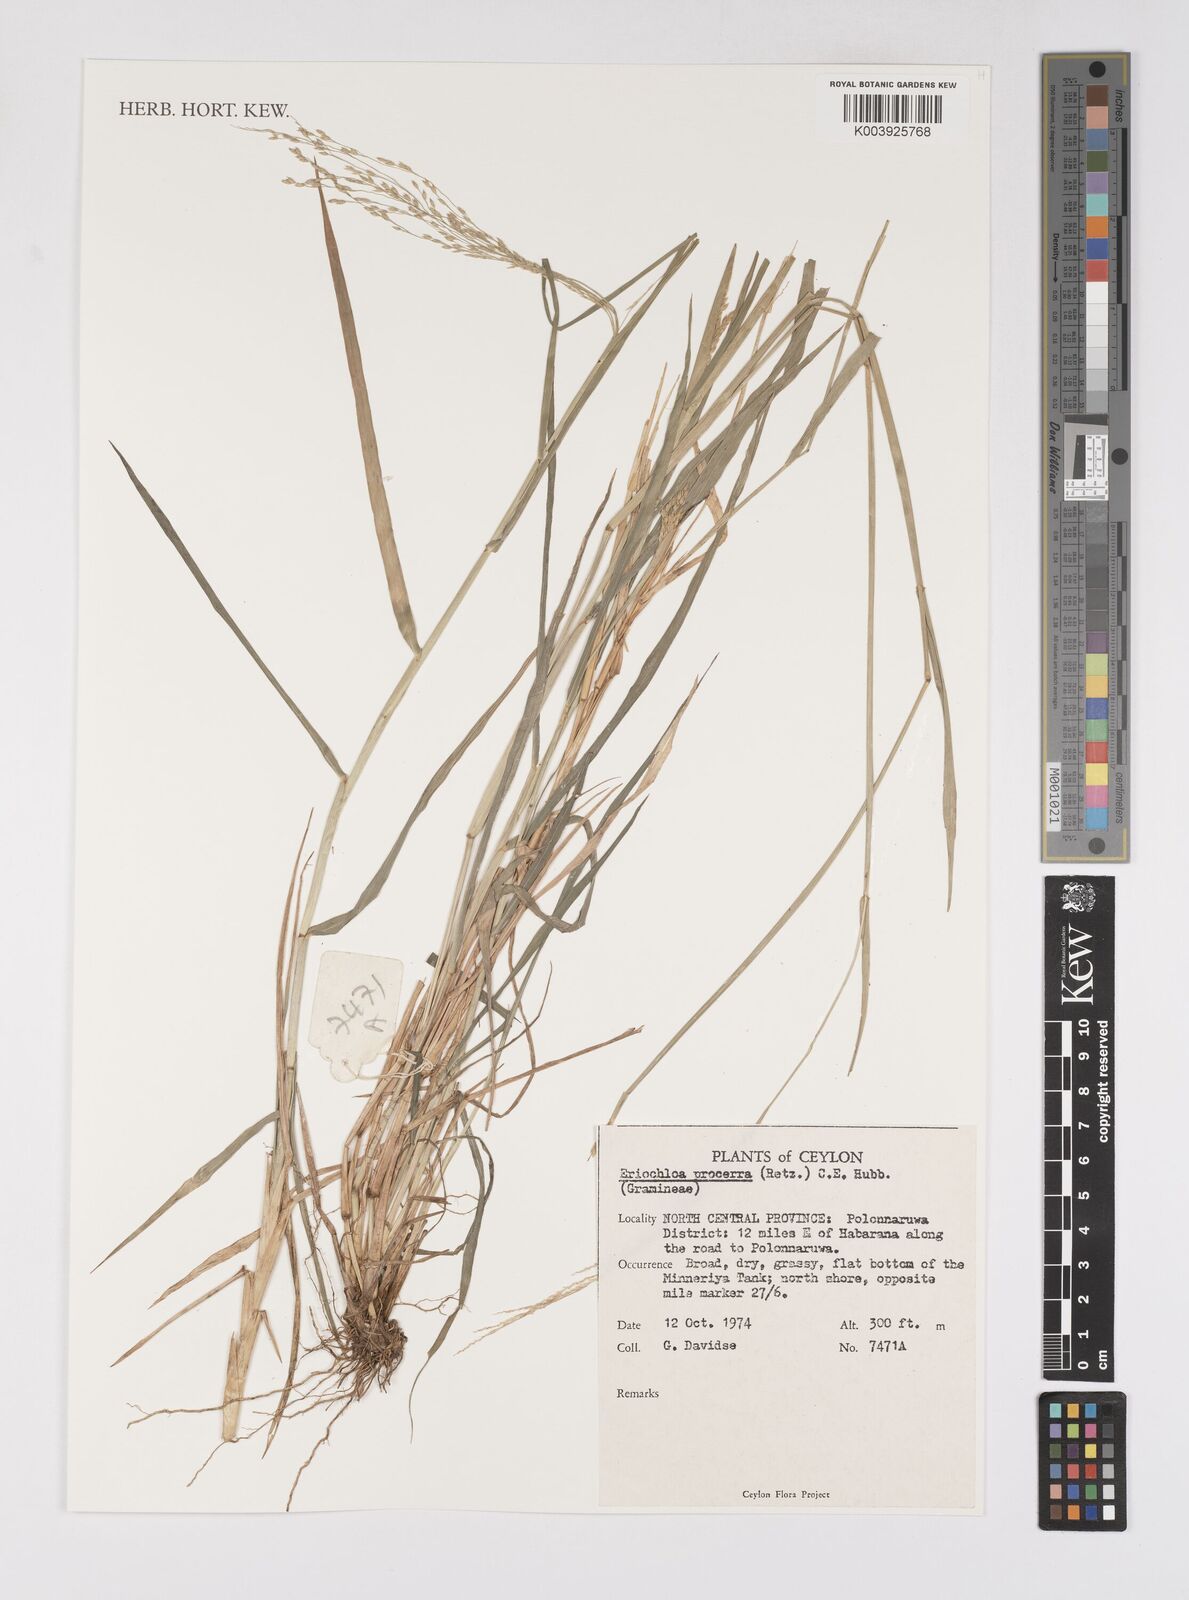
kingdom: Plantae
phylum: Tracheophyta
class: Liliopsida
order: Poales
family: Poaceae
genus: Eriochloa
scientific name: Eriochloa procera
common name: Spring grass
